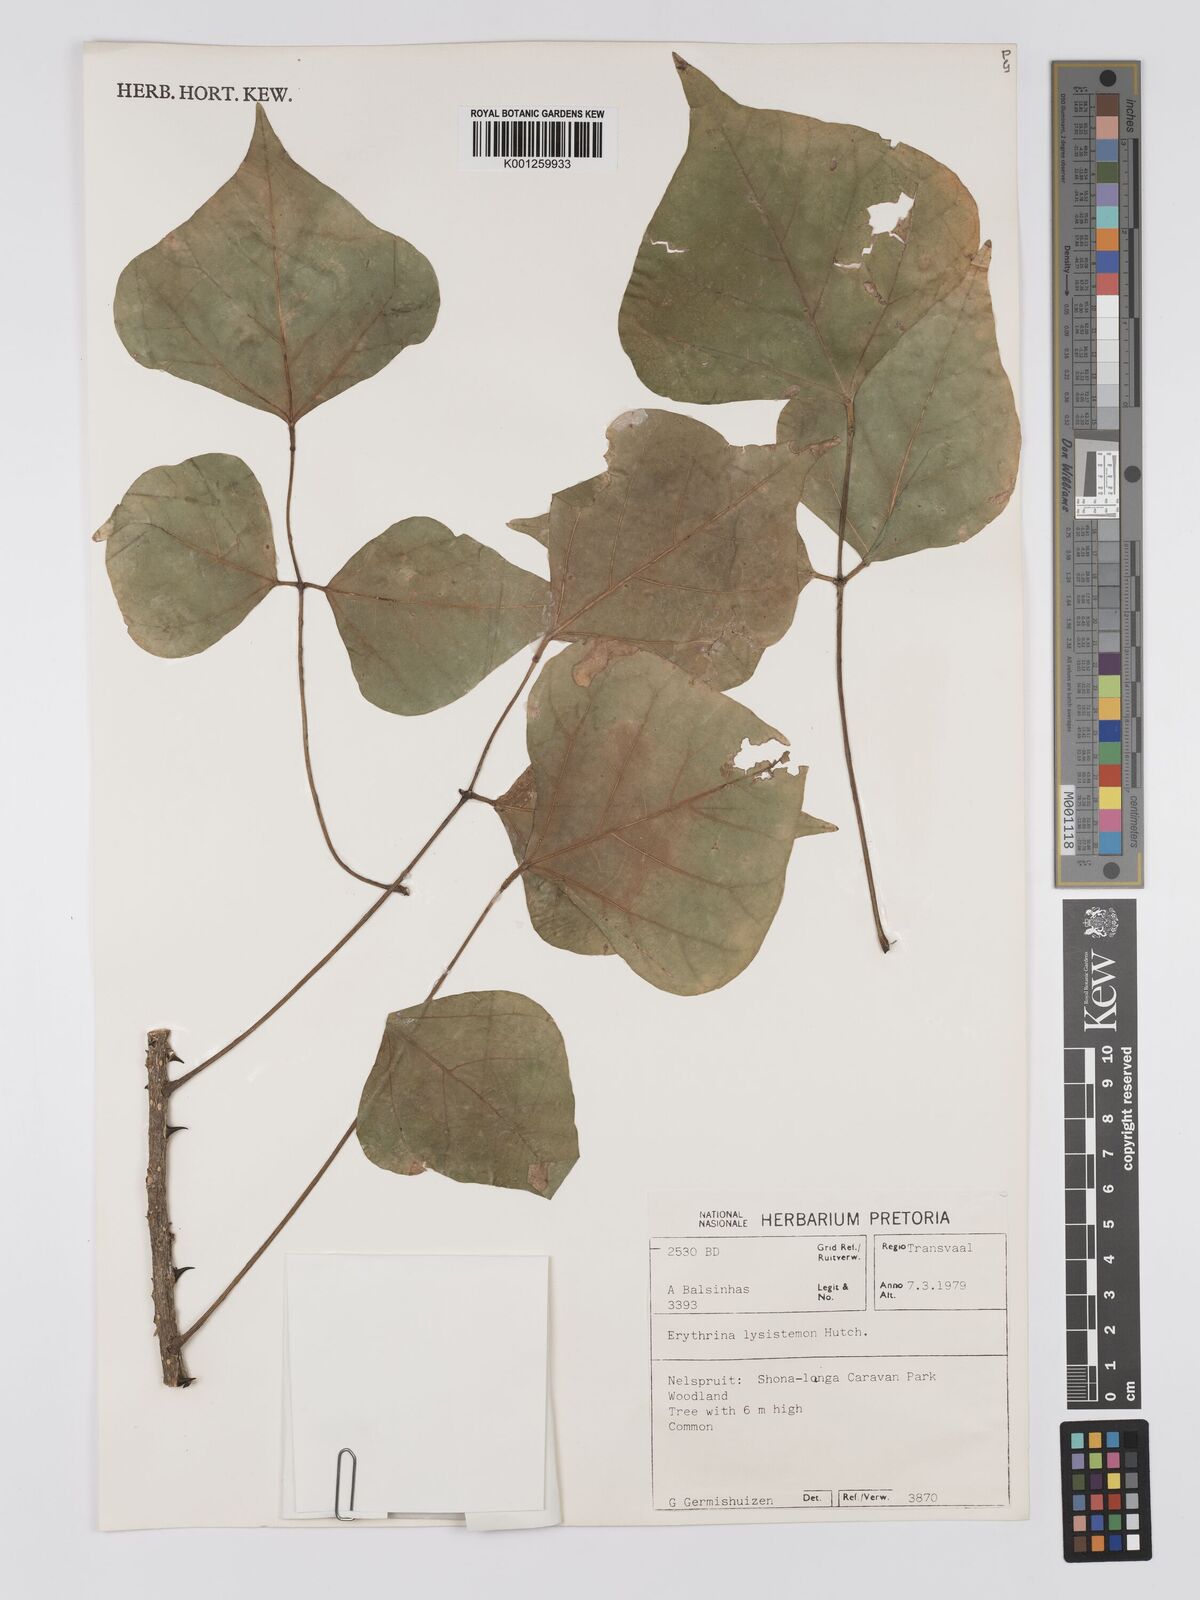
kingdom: Plantae
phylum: Tracheophyta
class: Magnoliopsida
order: Fabales
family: Fabaceae
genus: Erythrina
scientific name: Erythrina lysistemon
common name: Common coral tree
